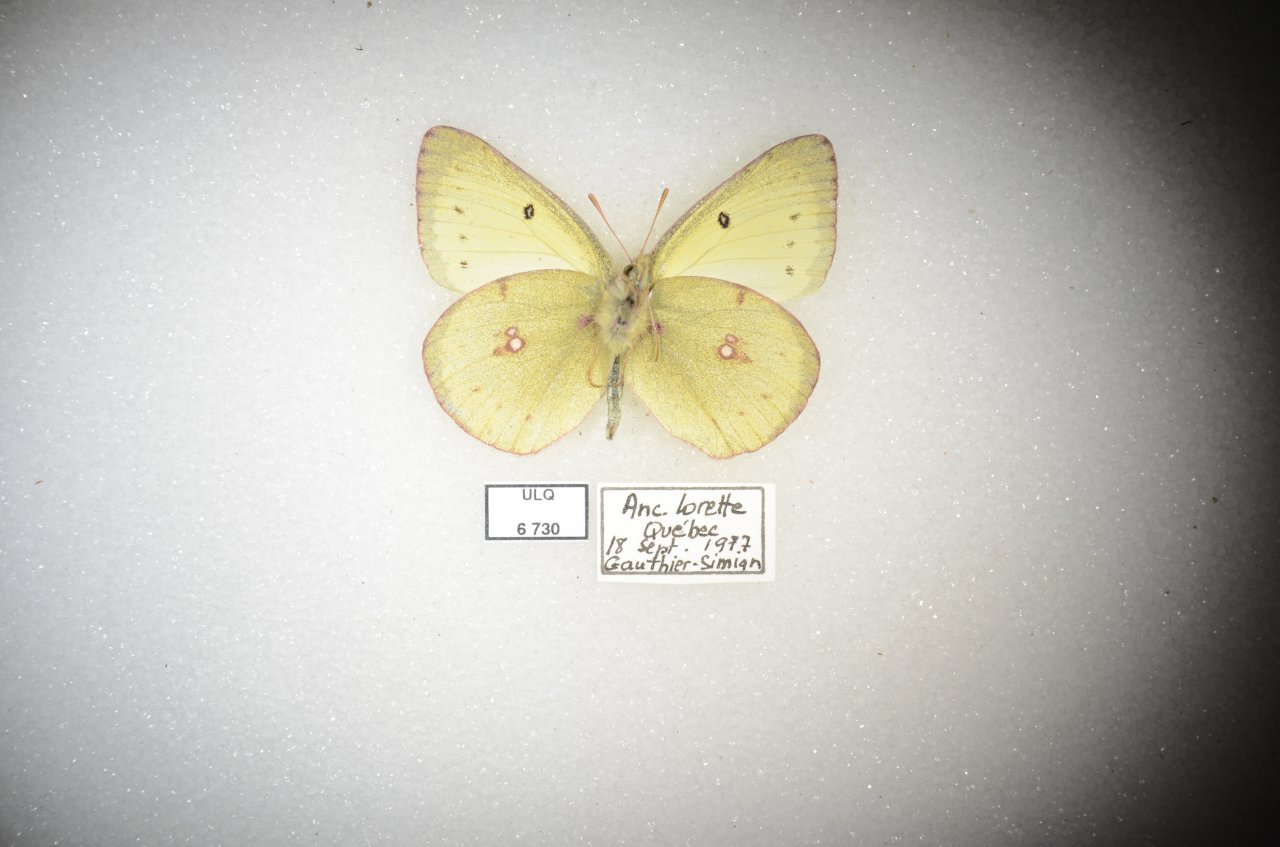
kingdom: Animalia
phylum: Arthropoda
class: Insecta
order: Lepidoptera
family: Pieridae
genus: Colias
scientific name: Colias philodice
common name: Clouded Sulphur
